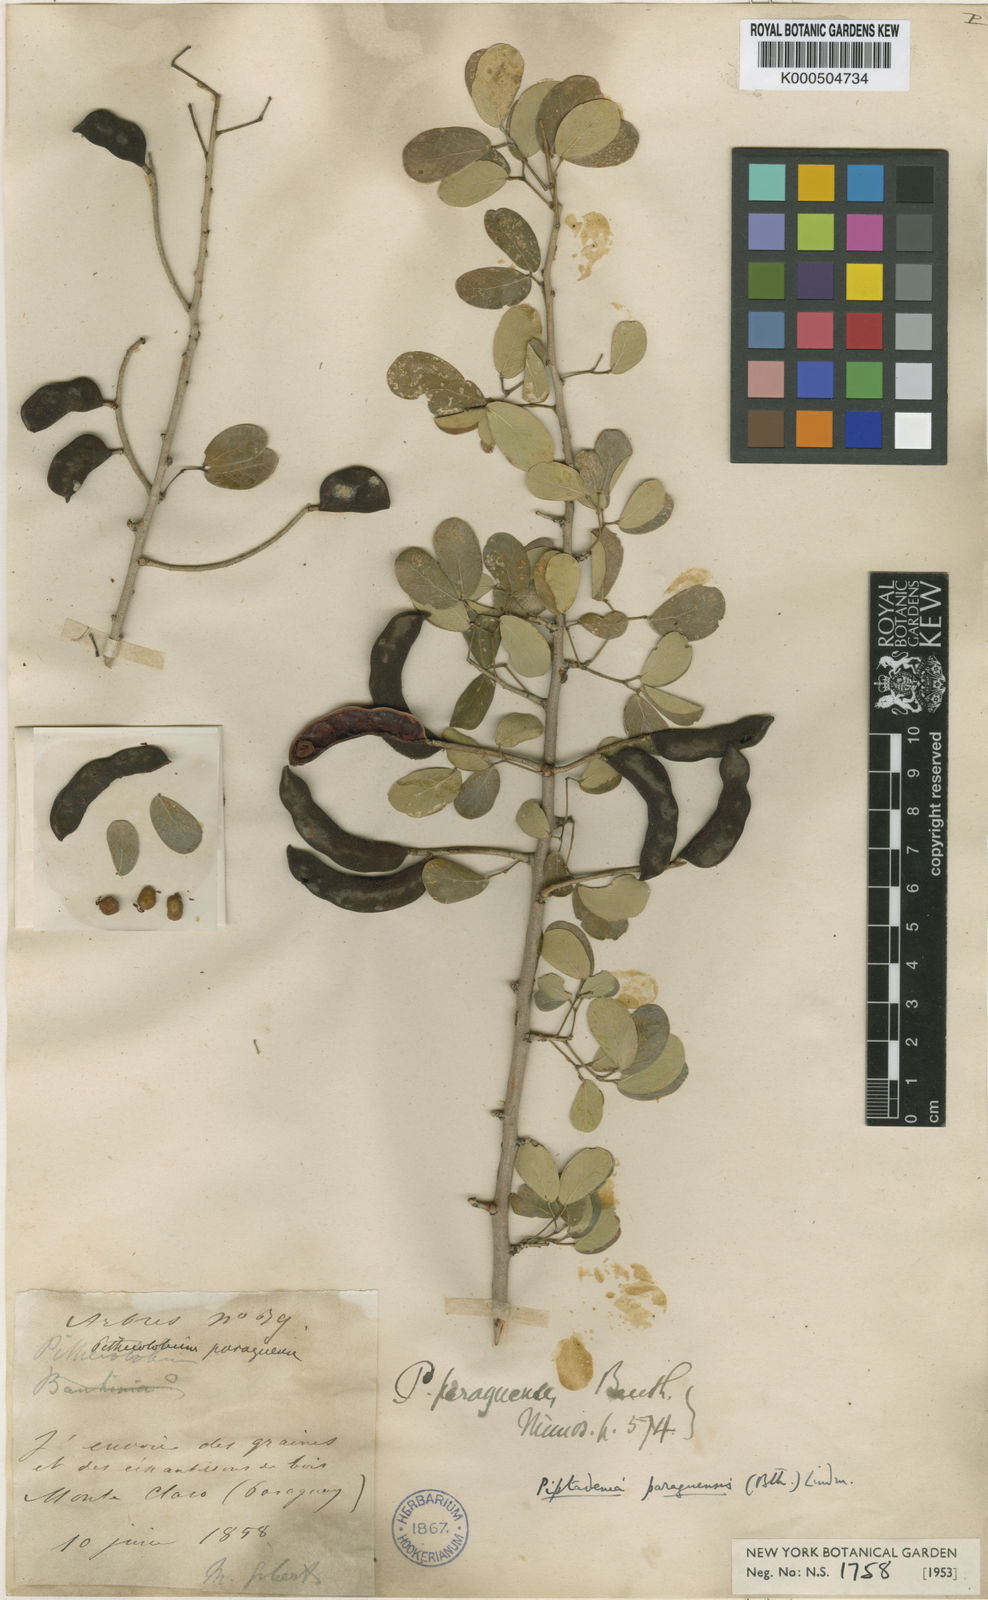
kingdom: Plantae
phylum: Tracheophyta
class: Magnoliopsida
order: Fabales
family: Fabaceae
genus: Microlobius
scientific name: Microlobius
